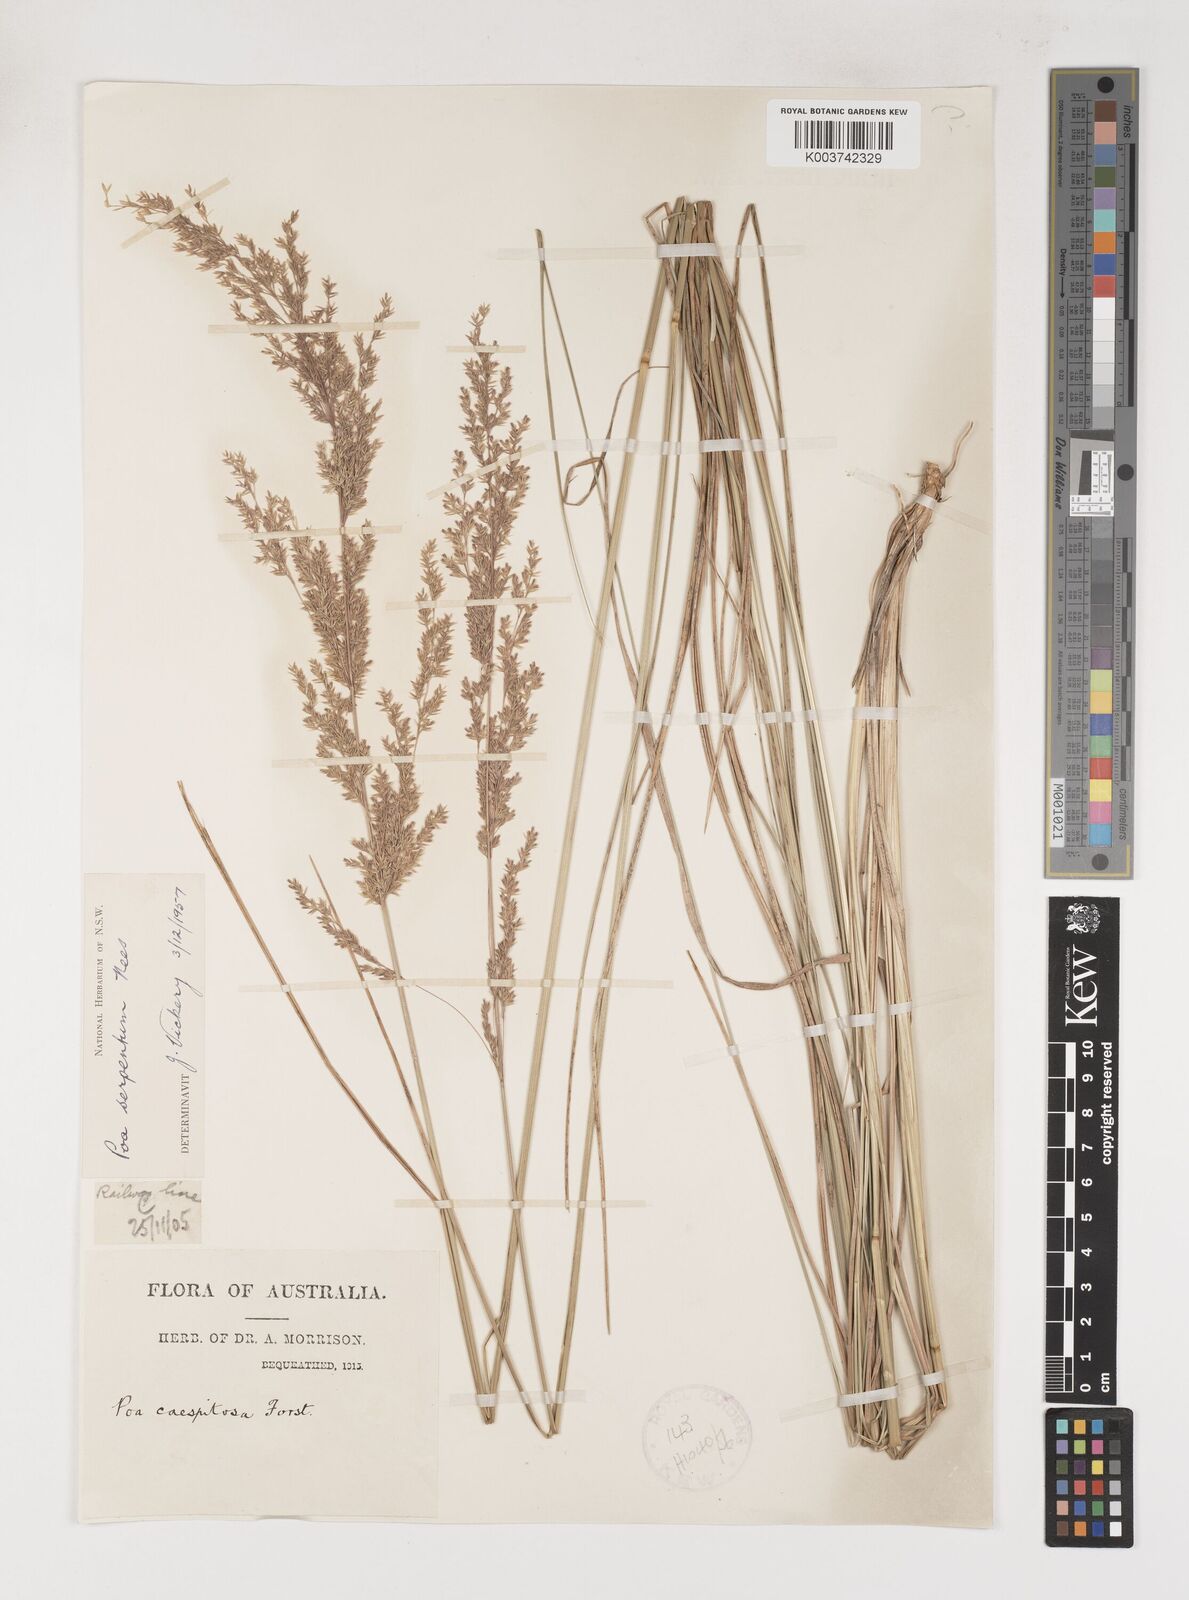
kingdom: Plantae
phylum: Tracheophyta
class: Liliopsida
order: Poales
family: Poaceae
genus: Poa
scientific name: Poa porphyroclados
